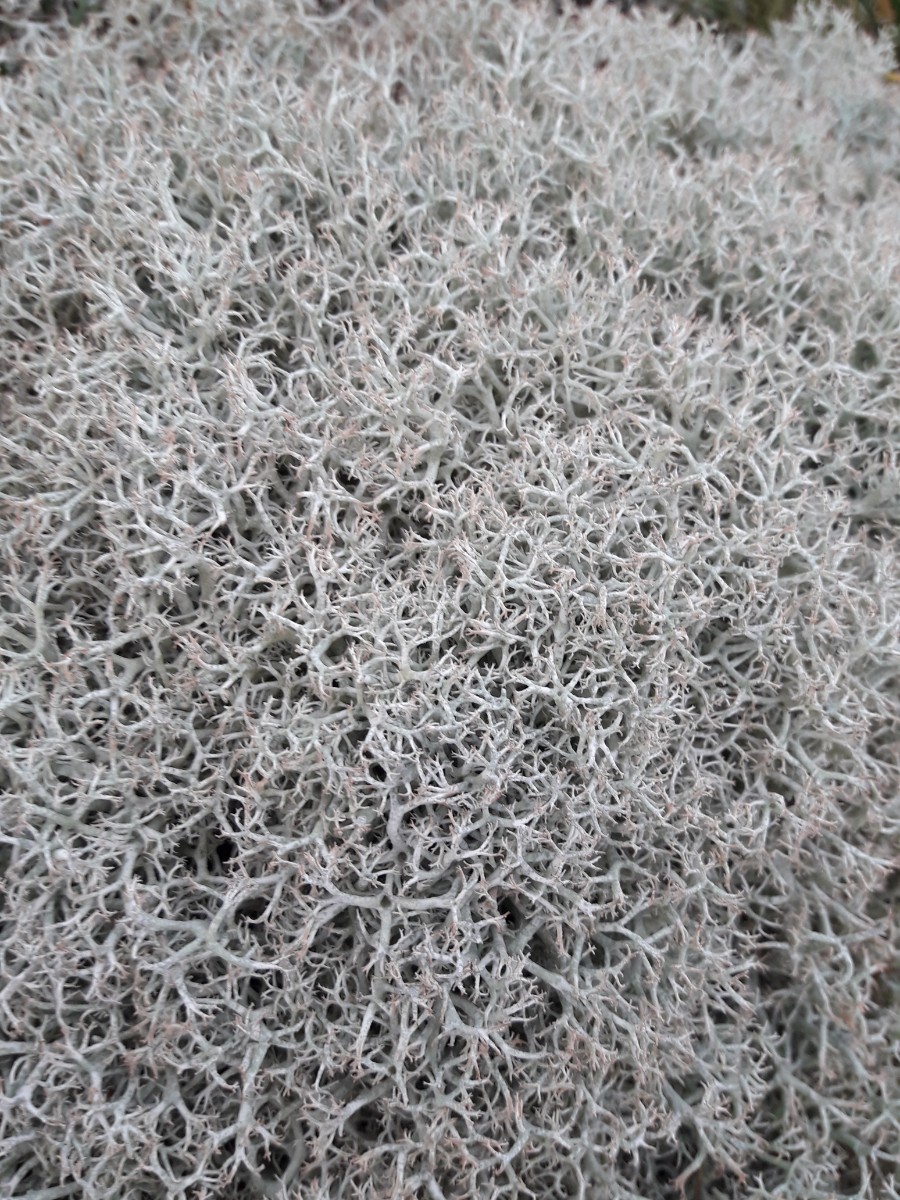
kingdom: Fungi
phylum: Ascomycota
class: Lecanoromycetes
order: Lecanorales
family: Cladoniaceae
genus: Cladonia
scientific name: Cladonia portentosa
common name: hede-rensdyrlav
